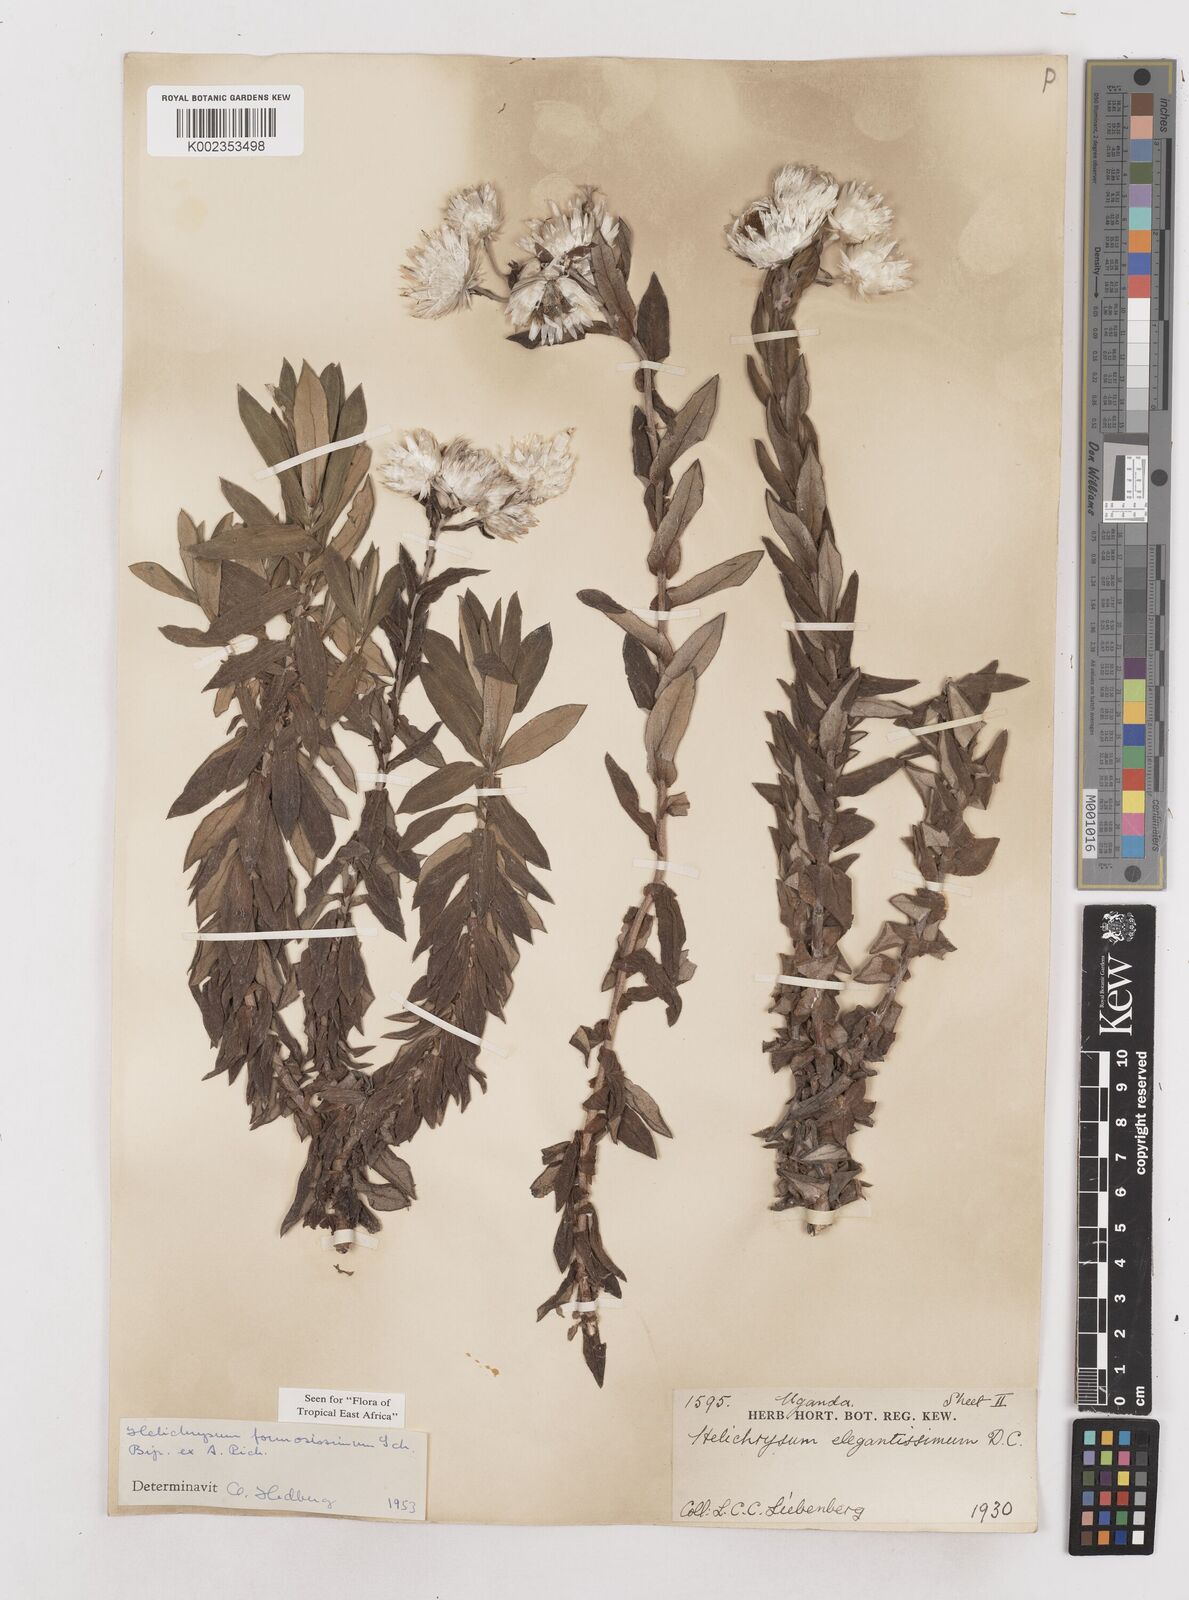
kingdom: Plantae
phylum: Tracheophyta
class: Magnoliopsida
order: Asterales
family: Asteraceae
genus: Helichrysum
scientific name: Helichrysum formosissimum
